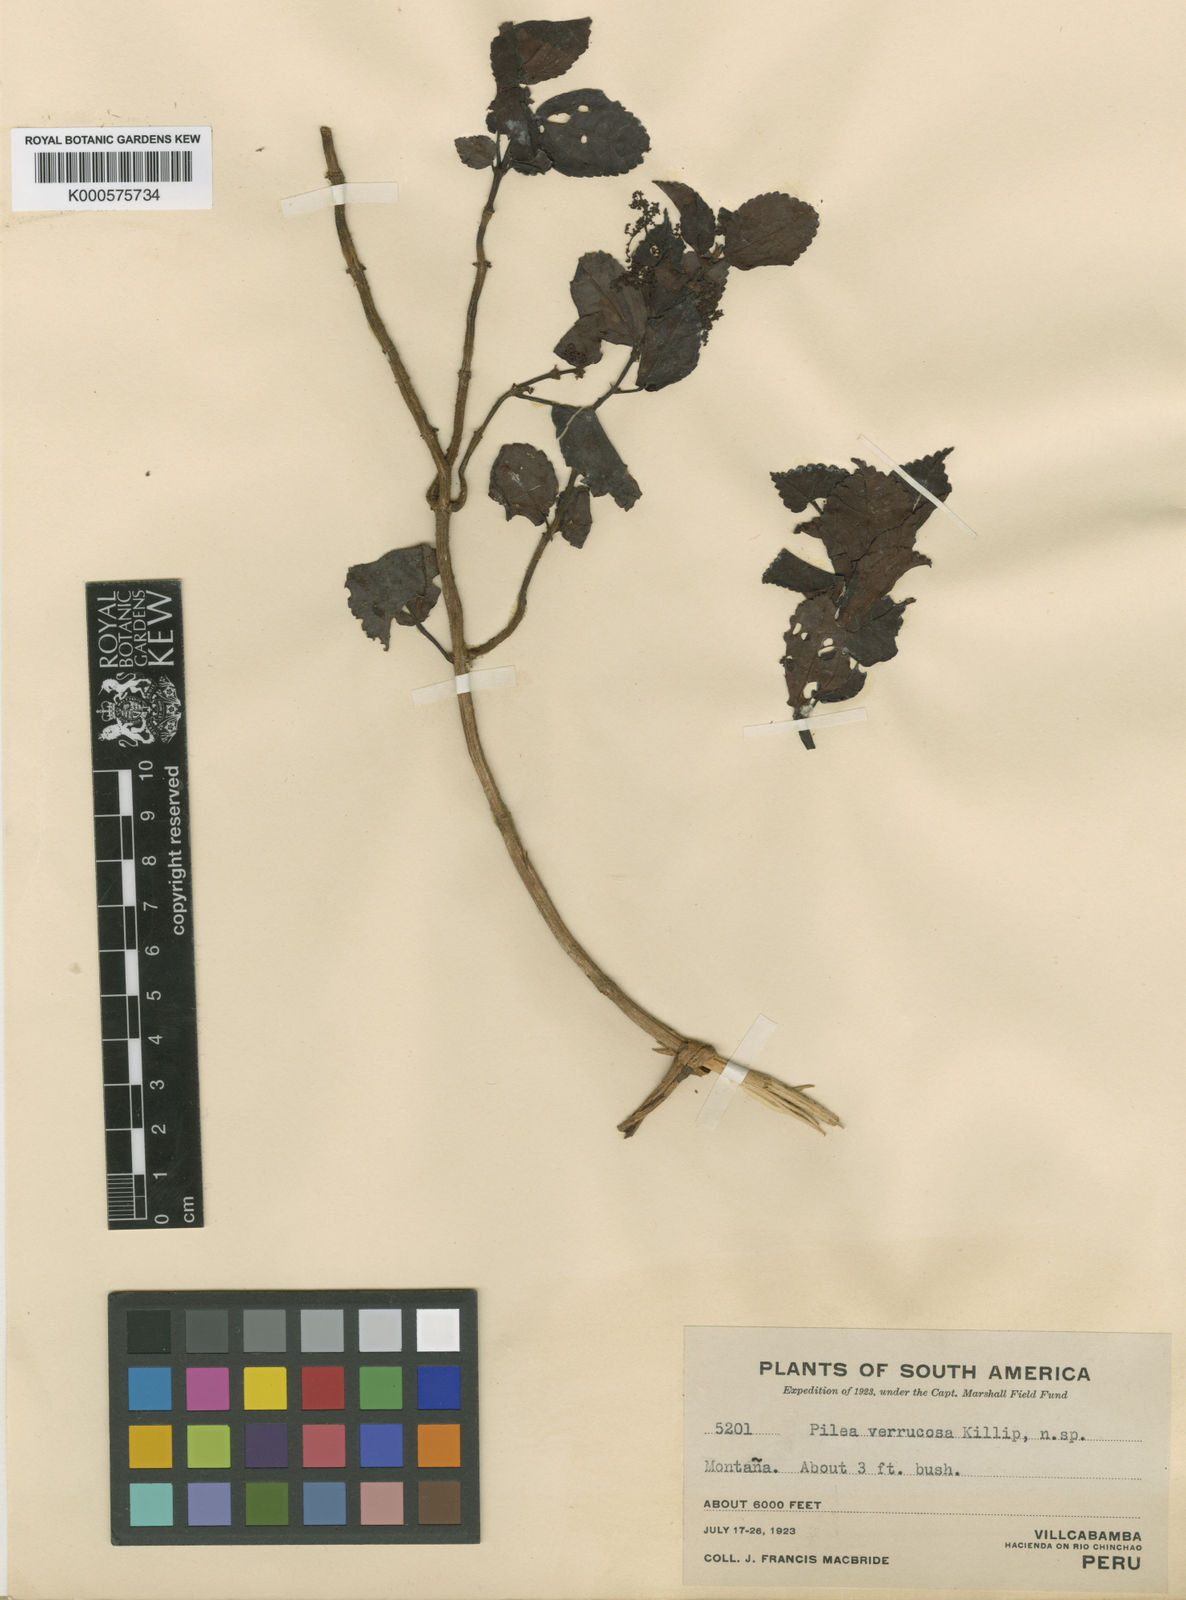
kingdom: Plantae
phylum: Tracheophyta
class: Magnoliopsida
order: Rosales
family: Urticaceae
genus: Pilea
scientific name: Pilea verrucosa
